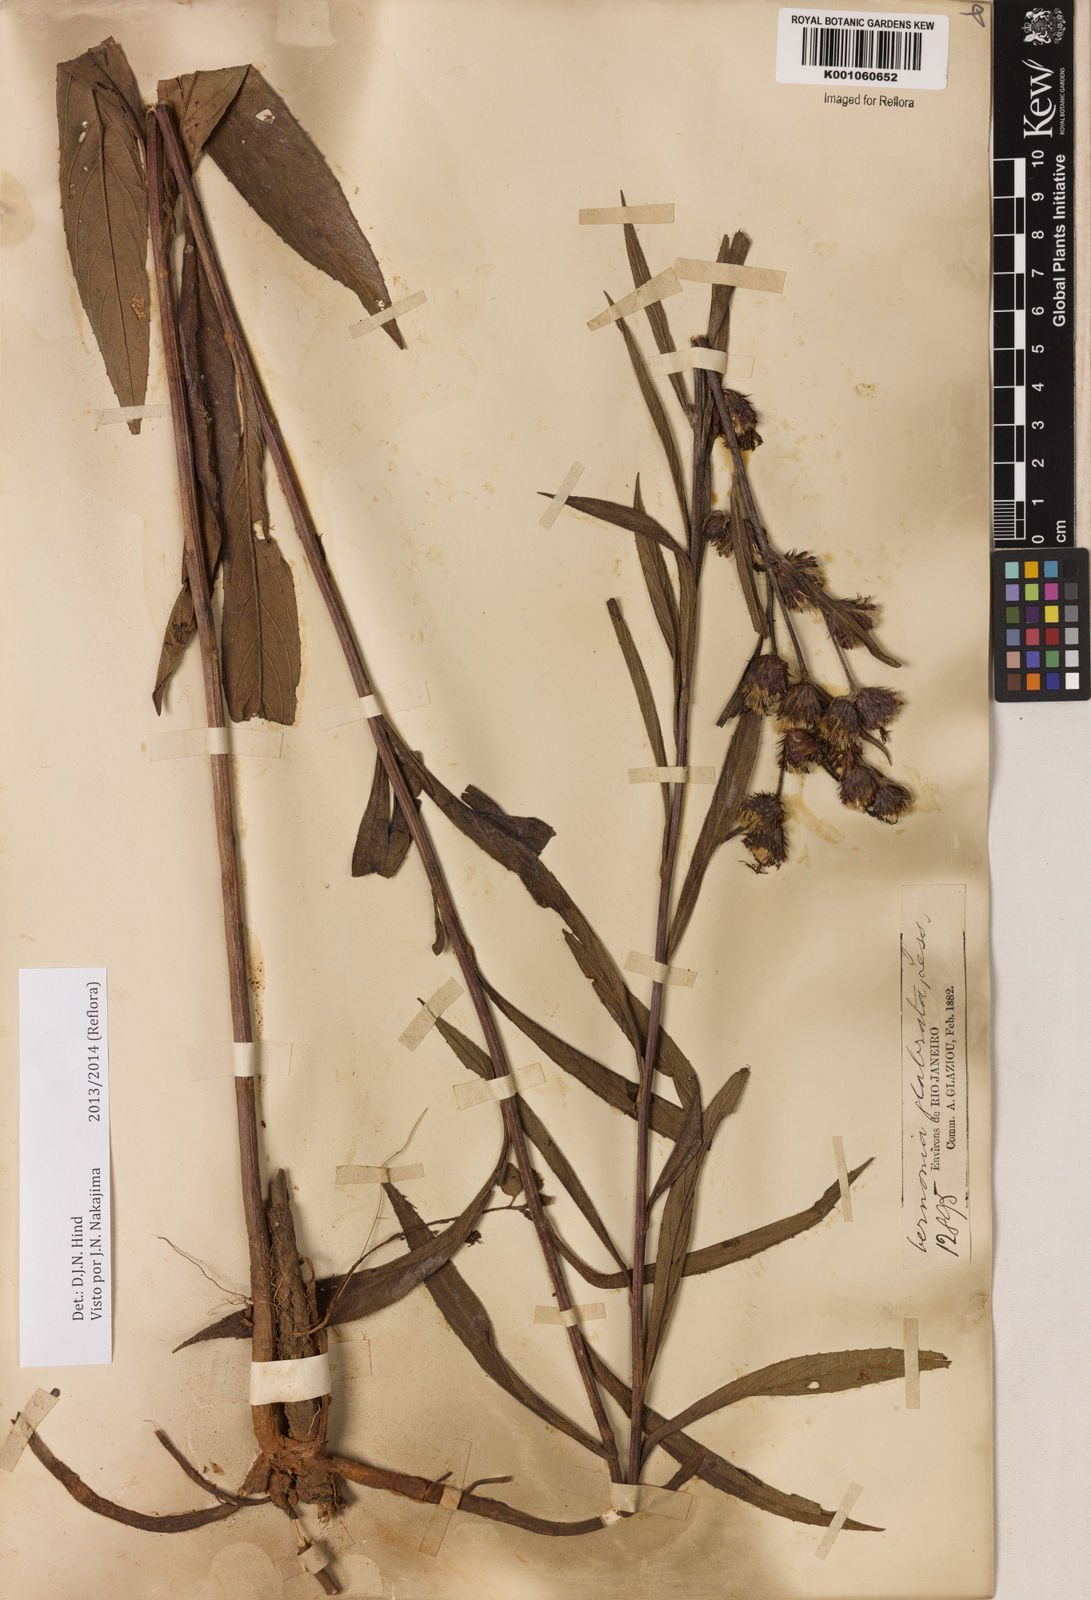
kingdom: Plantae
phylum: Tracheophyta
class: Magnoliopsida
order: Asterales
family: Asteraceae
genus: Lessingianthus
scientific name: Lessingianthus glabratus
